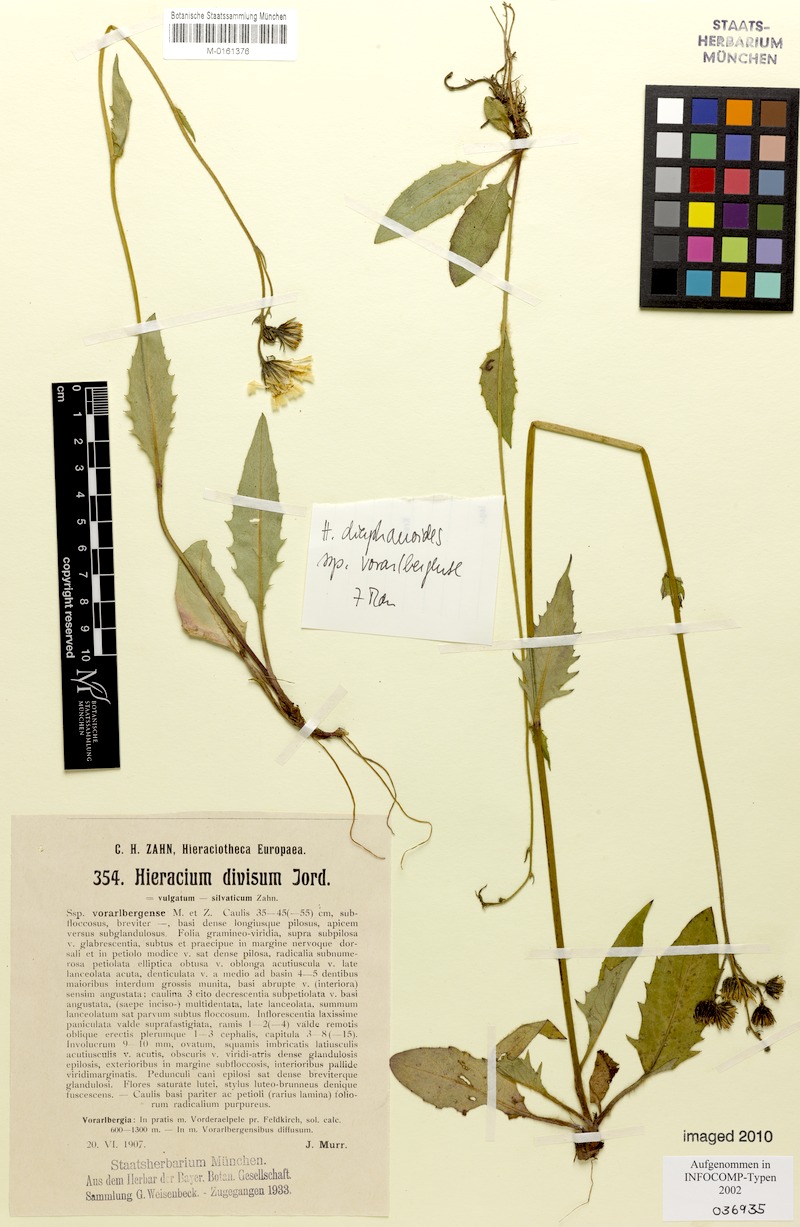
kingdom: Plantae
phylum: Tracheophyta
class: Magnoliopsida
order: Asterales
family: Asteraceae
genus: Hieracium
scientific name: Hieracium diaphanoides
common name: Fine-bracted hawkweed
